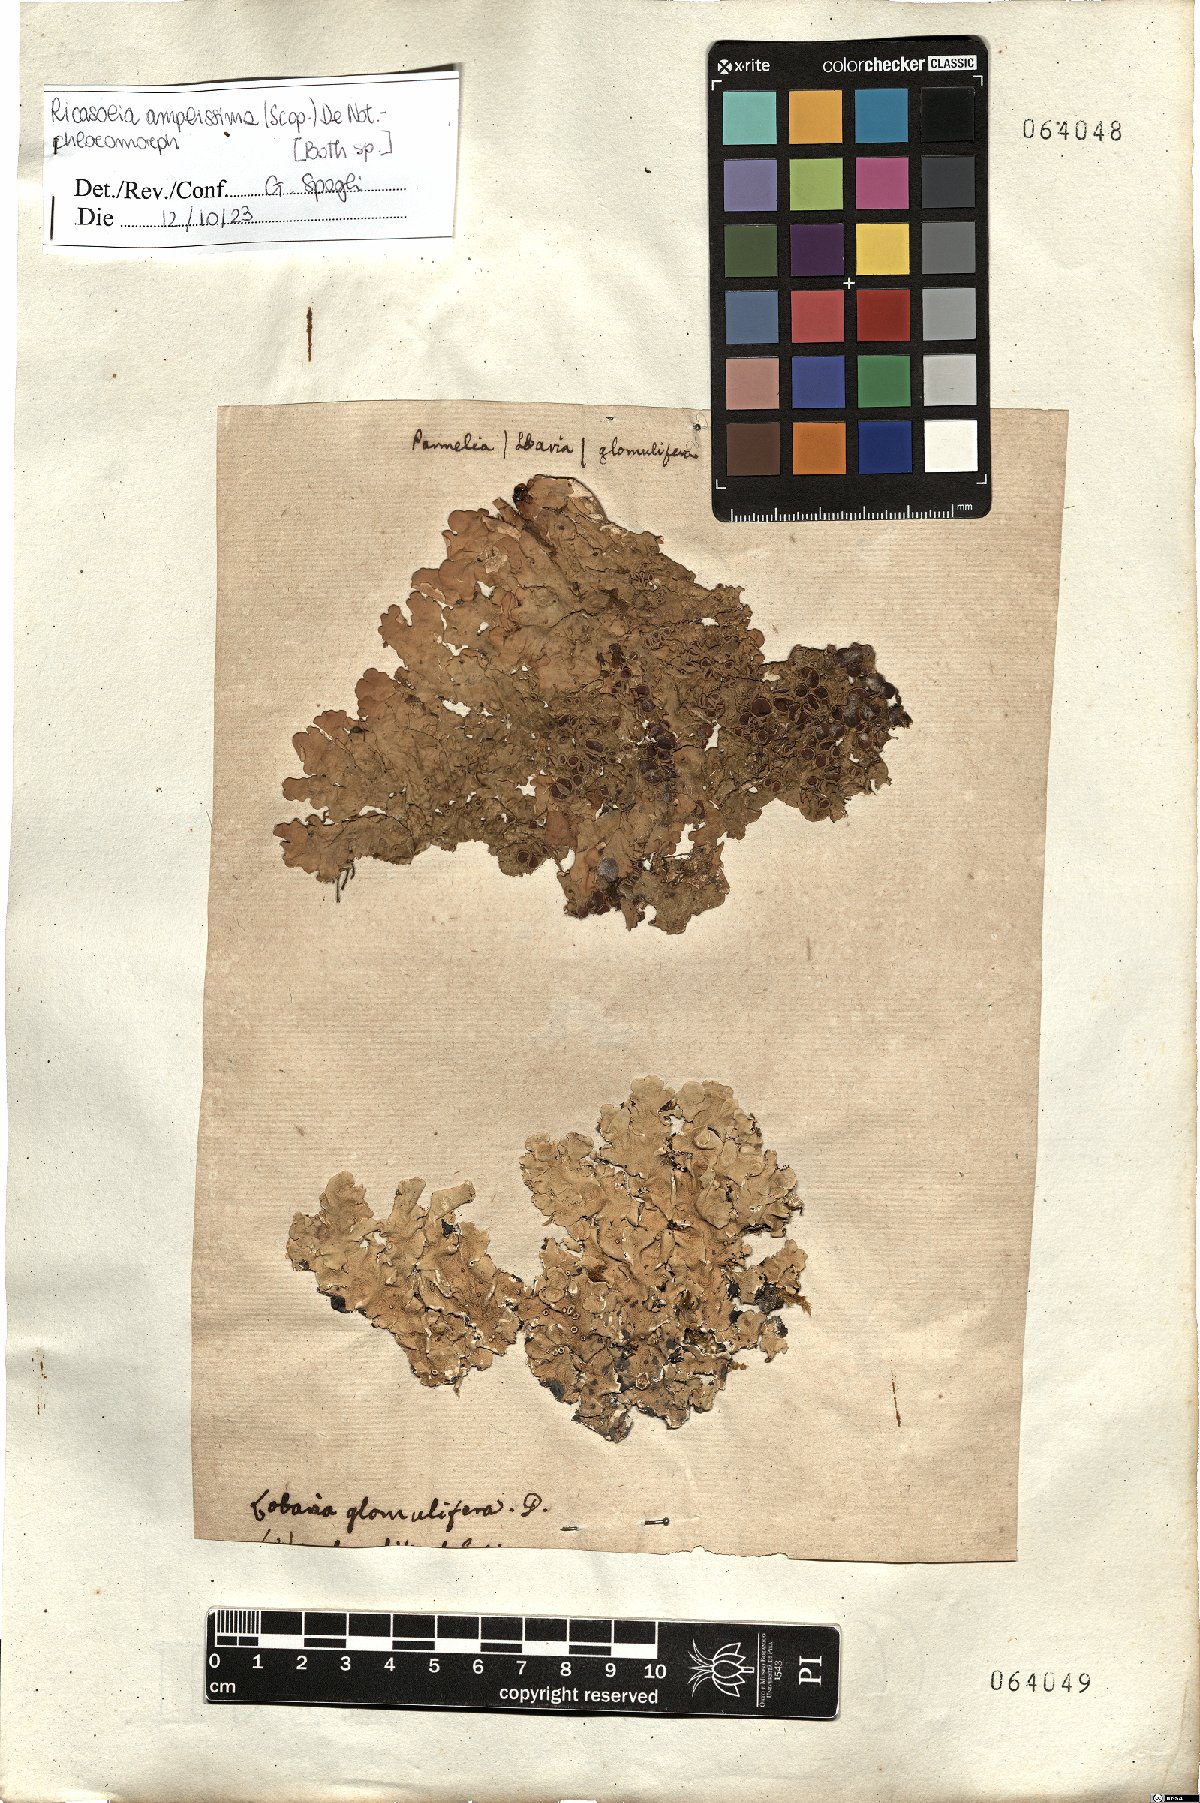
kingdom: Fungi
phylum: Ascomycota
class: Lecanoromycetes
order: Peltigerales
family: Lobariaceae
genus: Ricasolia
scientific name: Ricasolia amplissima
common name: Giant candlewax lichen
